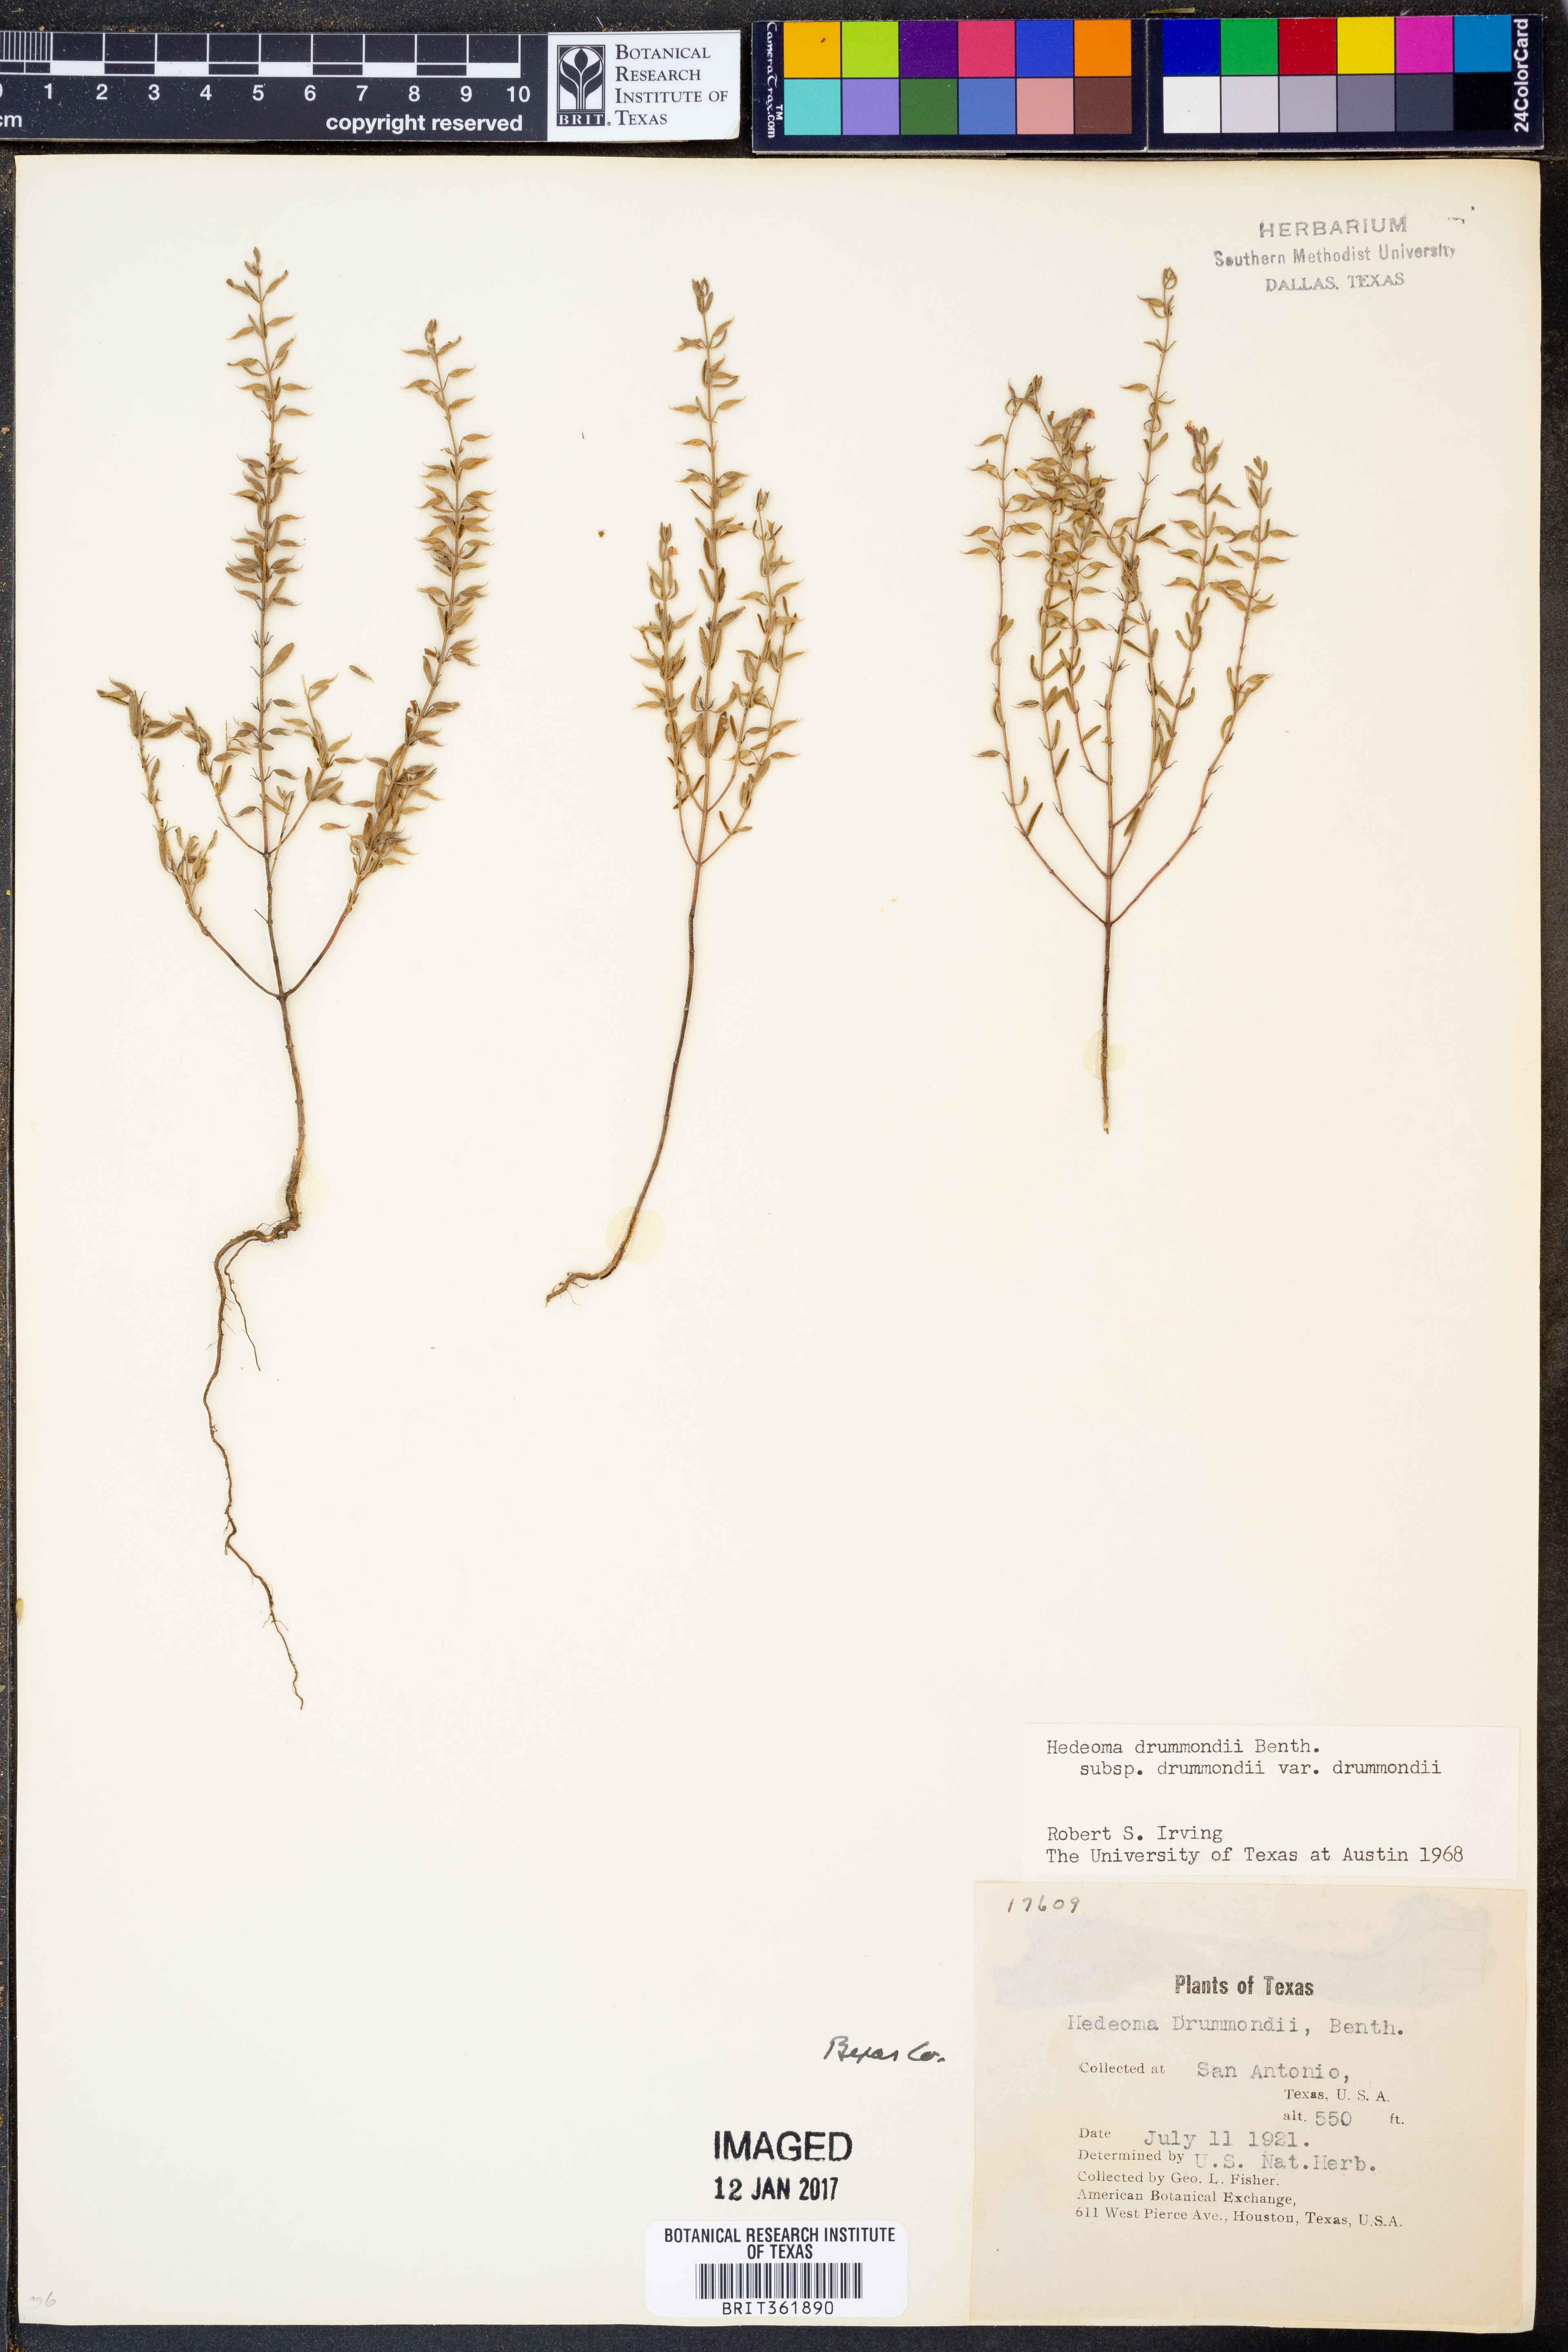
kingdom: Plantae
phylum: Tracheophyta
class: Magnoliopsida
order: Lamiales
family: Lamiaceae
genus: Hedeoma
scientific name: Hedeoma drummondii
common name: New mexico pennyroyal
